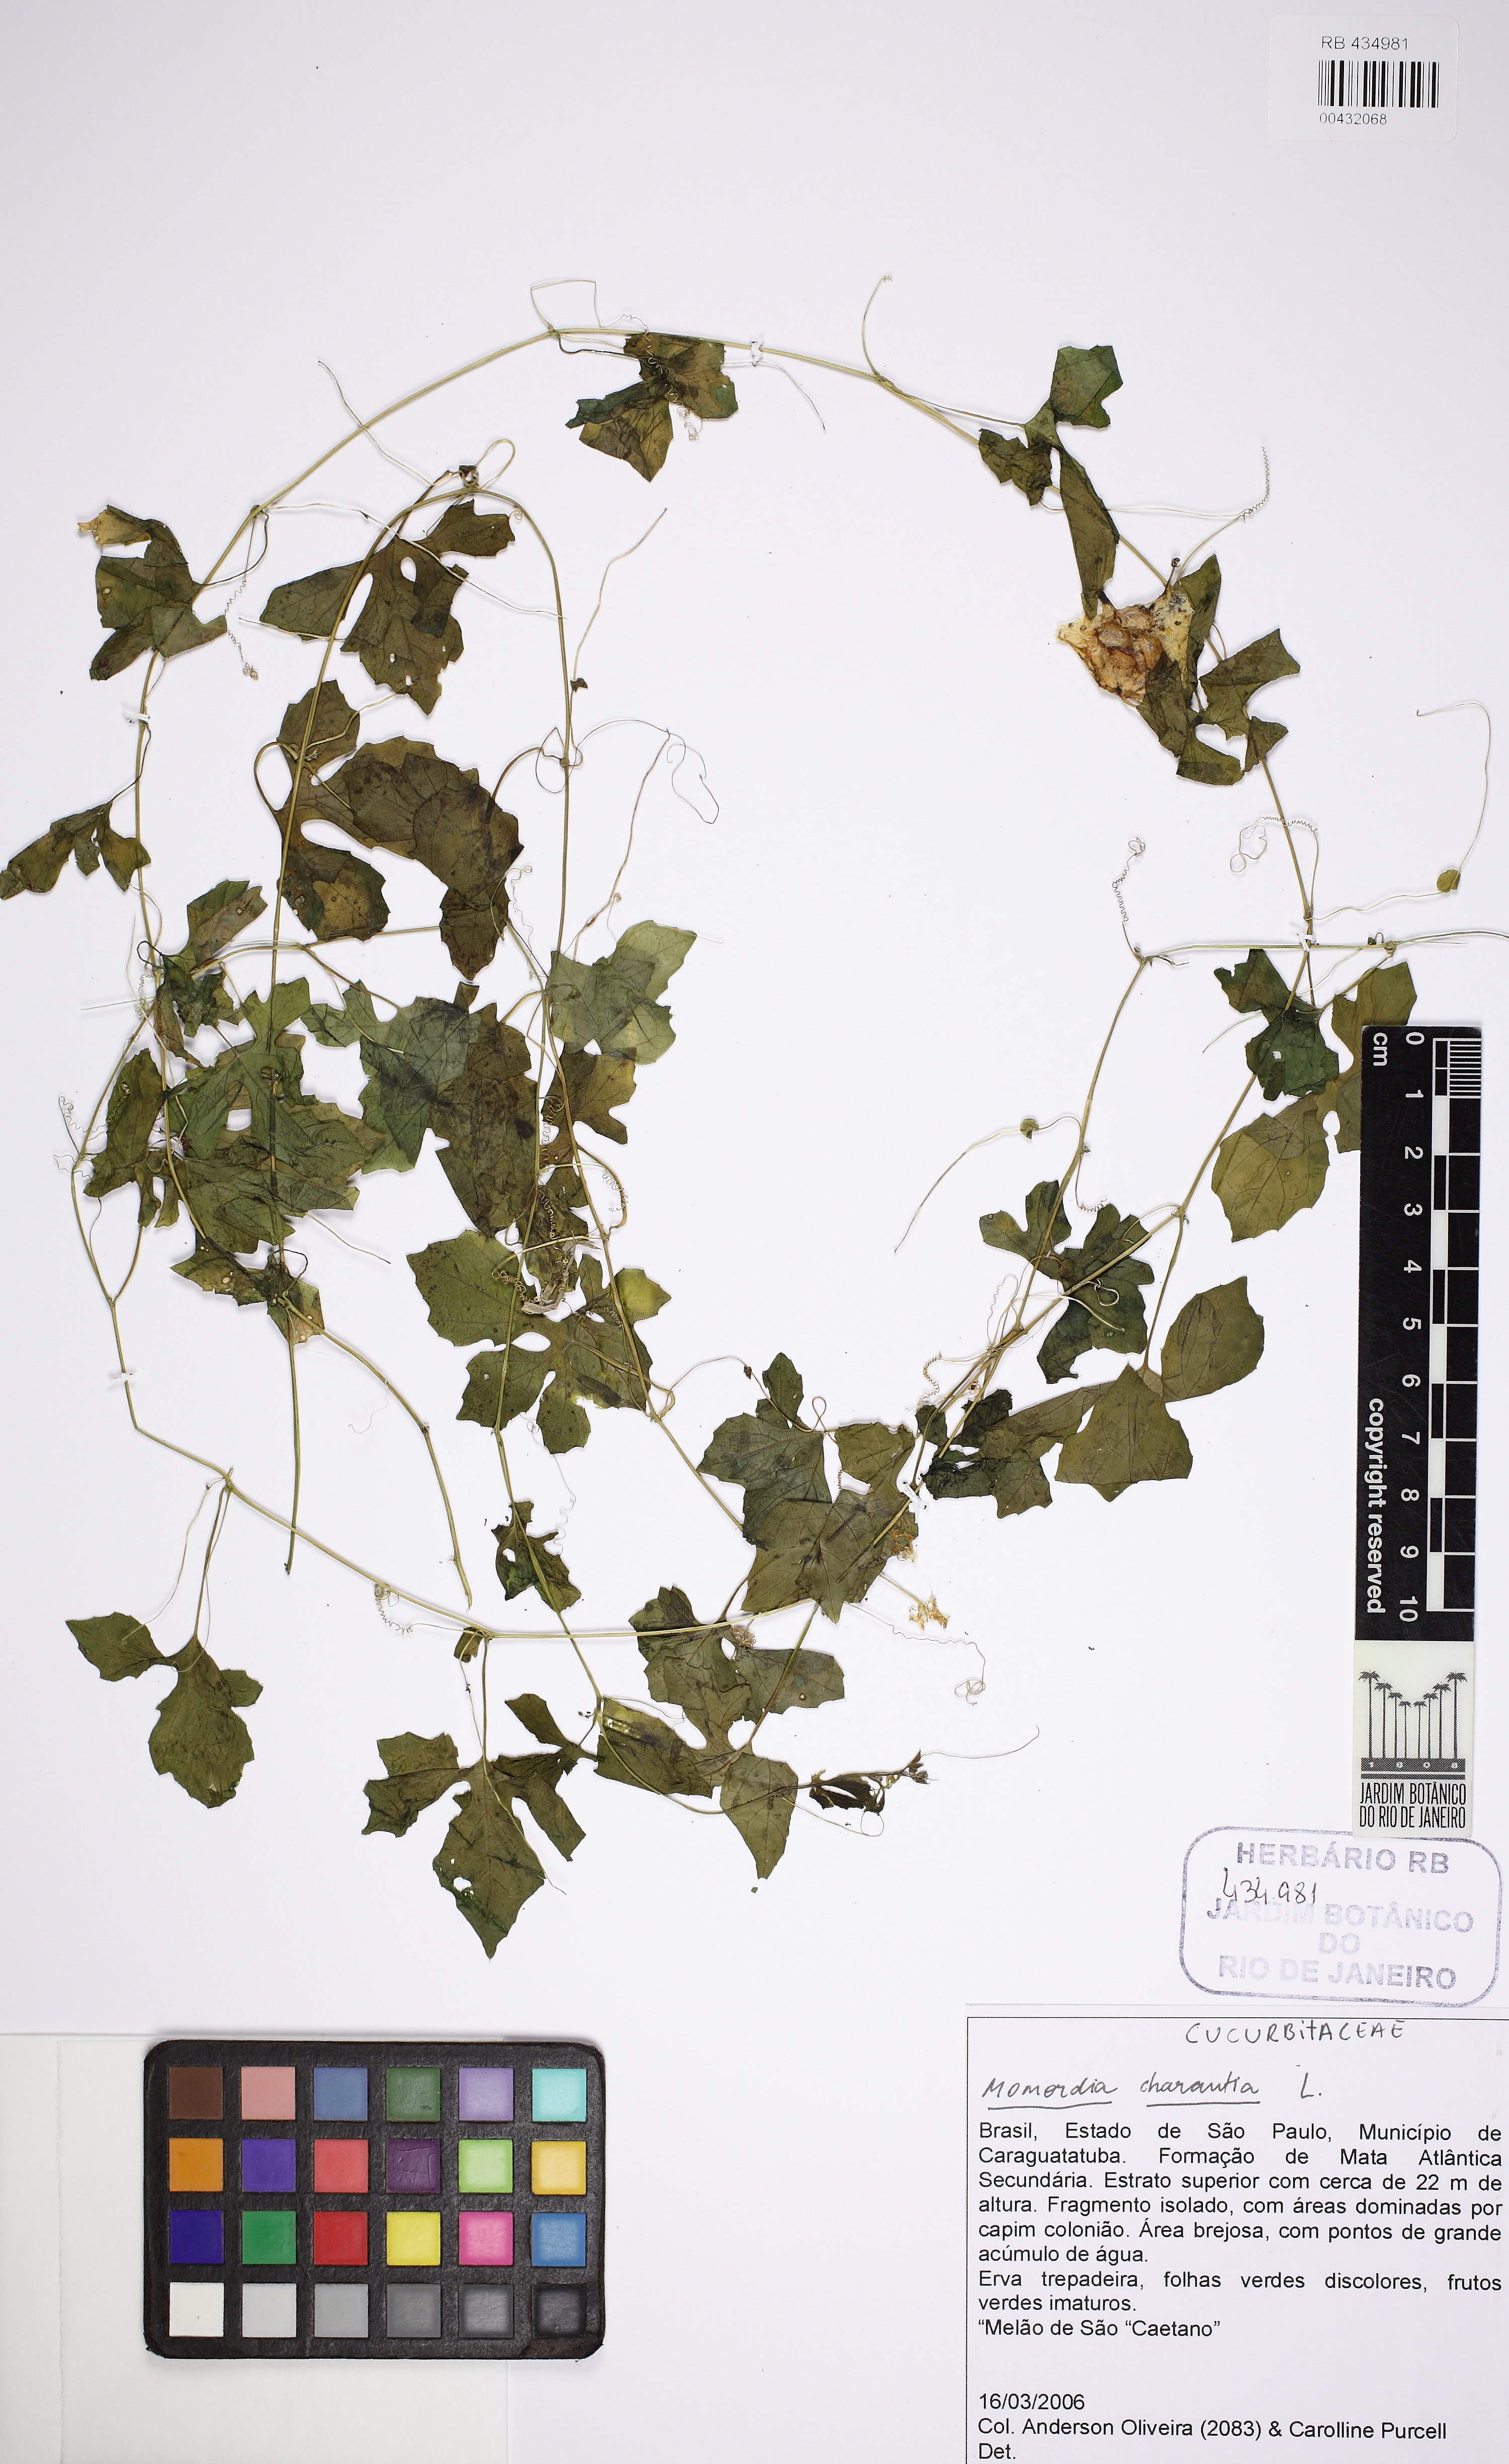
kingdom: Plantae
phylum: Tracheophyta
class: Magnoliopsida
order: Cucurbitales
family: Cucurbitaceae
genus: Momordica
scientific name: Momordica charantia
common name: Balsampear
